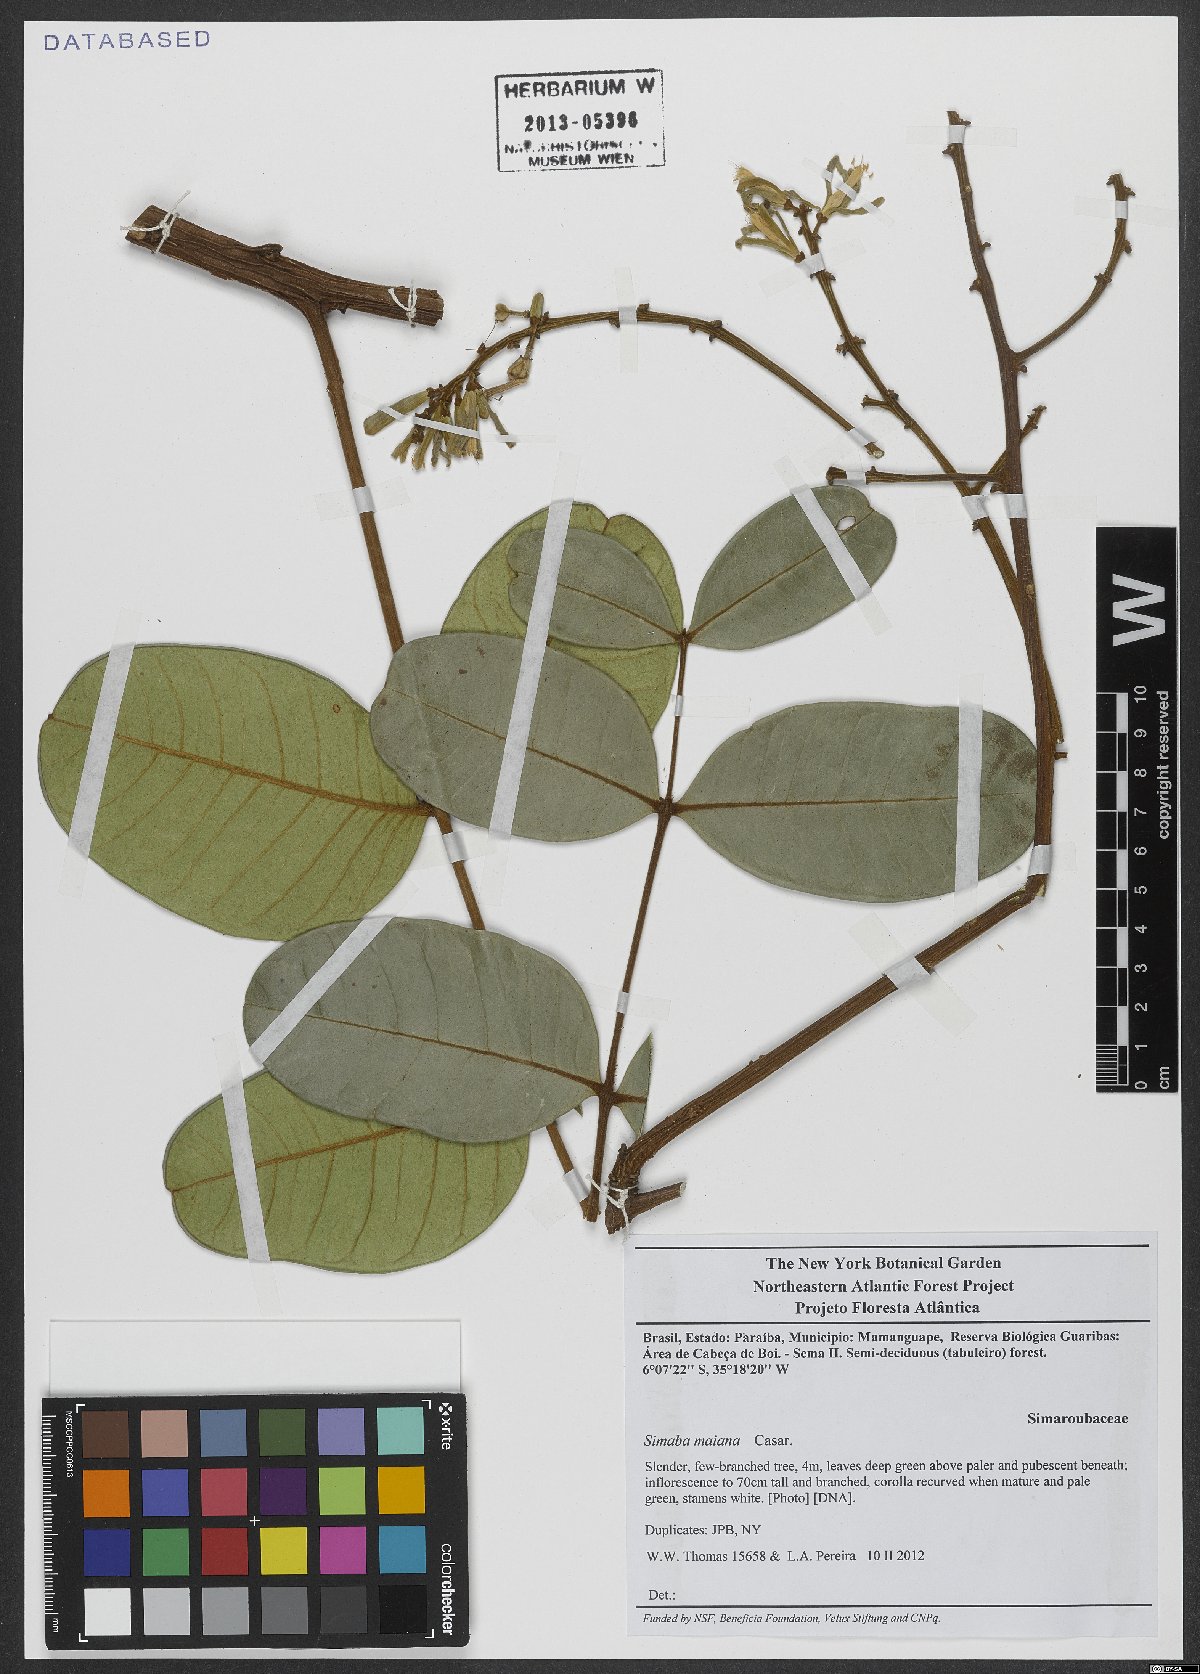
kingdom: Plantae
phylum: Tracheophyta
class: Magnoliopsida
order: Sapindales
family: Simaroubaceae
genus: Homalolepis
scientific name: Homalolepis maiana
